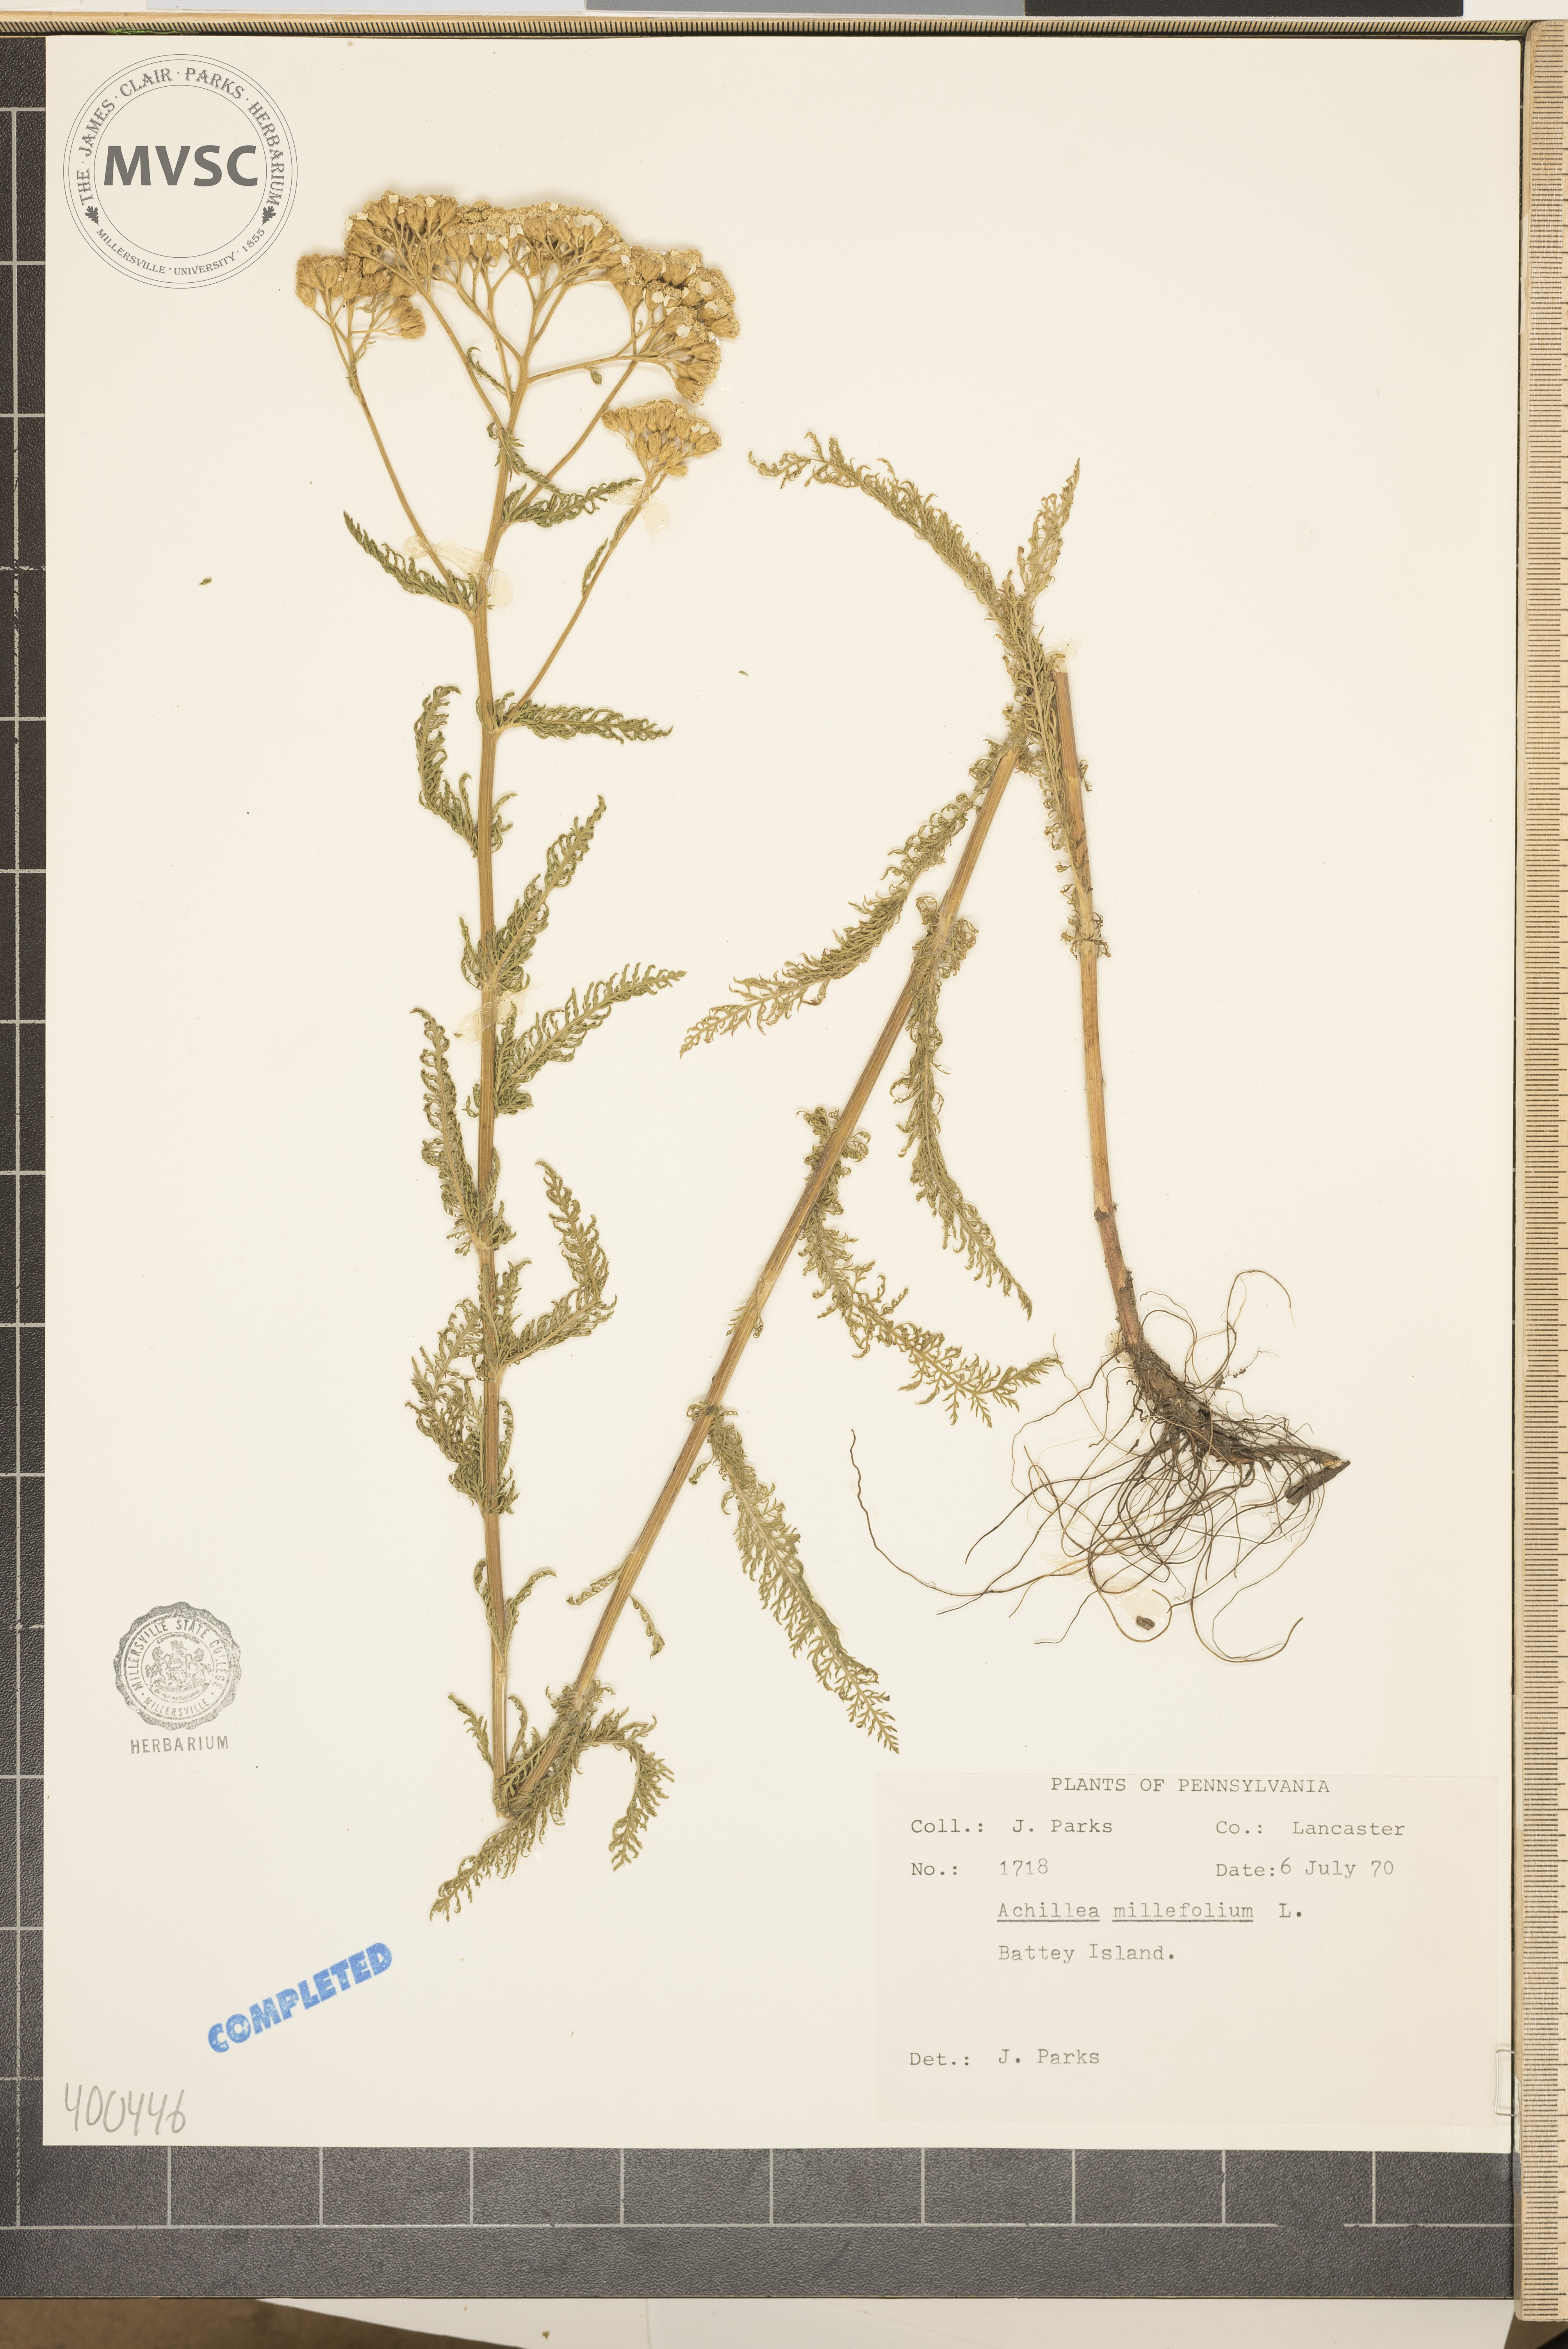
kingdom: Plantae
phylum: Tracheophyta
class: Magnoliopsida
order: Asterales
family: Asteraceae
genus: Achillea
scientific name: Achillea millefolium
